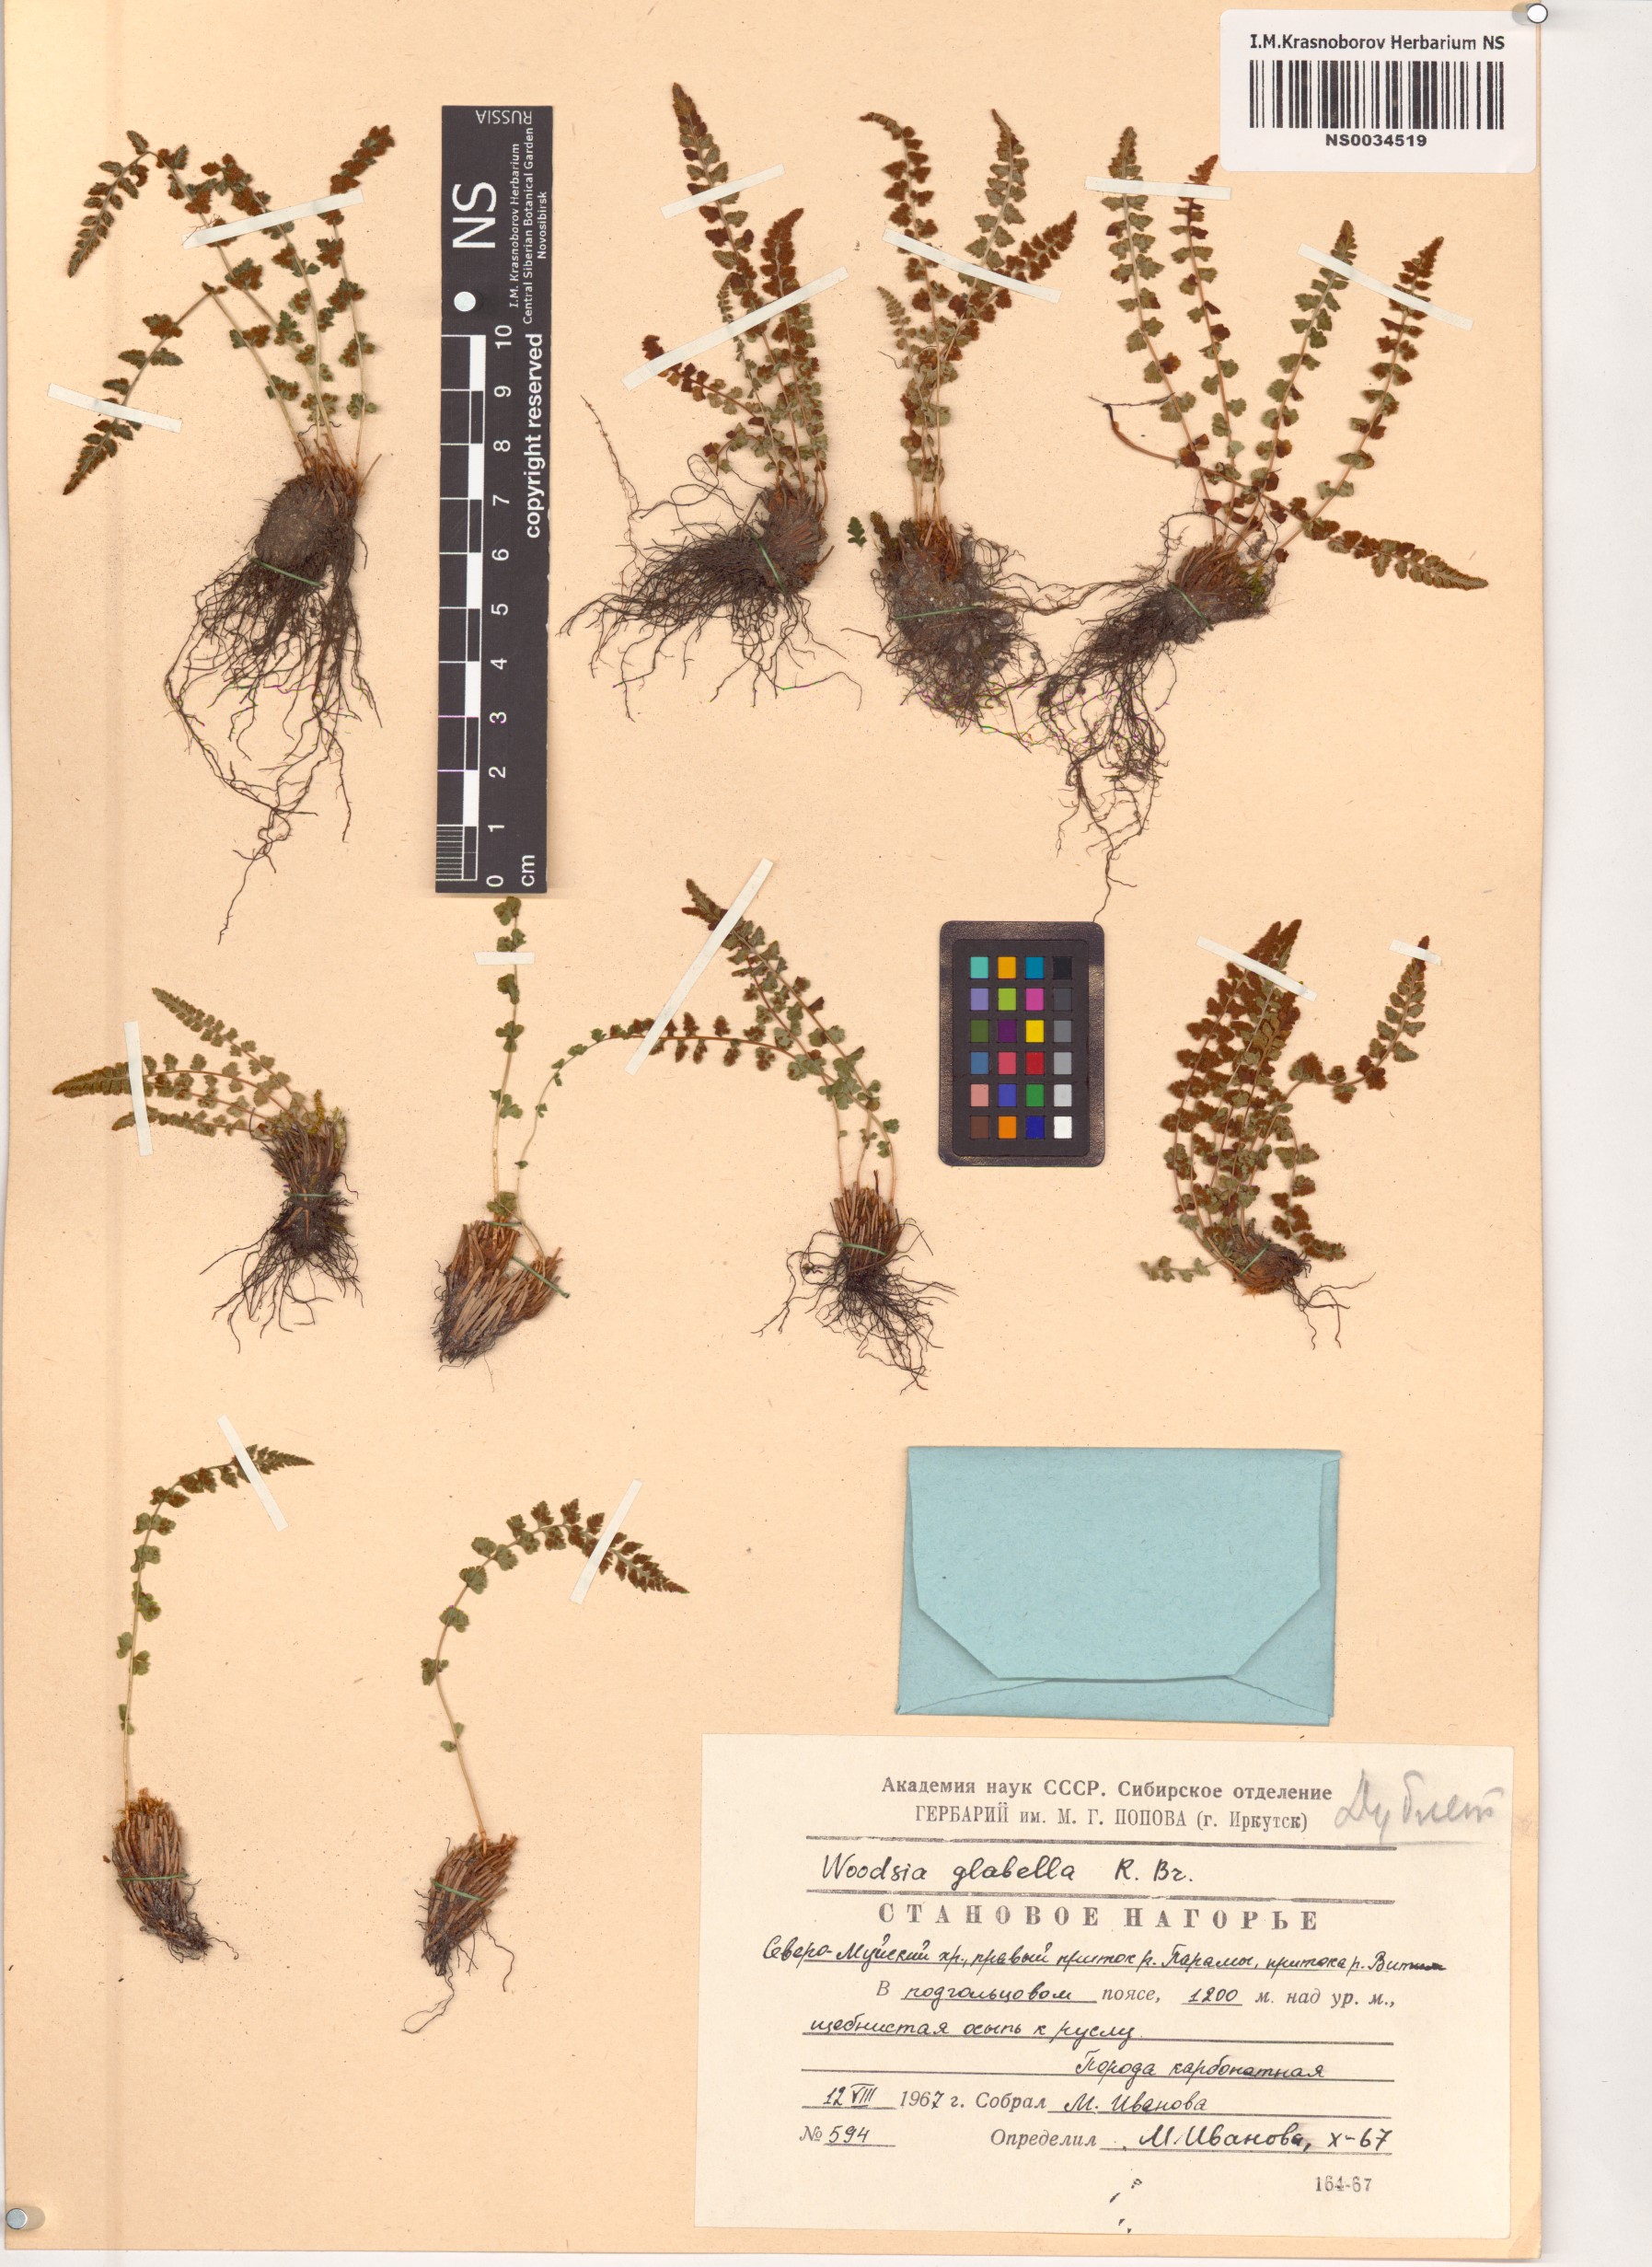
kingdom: Plantae
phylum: Tracheophyta
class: Polypodiopsida
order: Polypodiales
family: Woodsiaceae
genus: Woodsia
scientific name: Woodsia glabella
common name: Smooth woodsia
